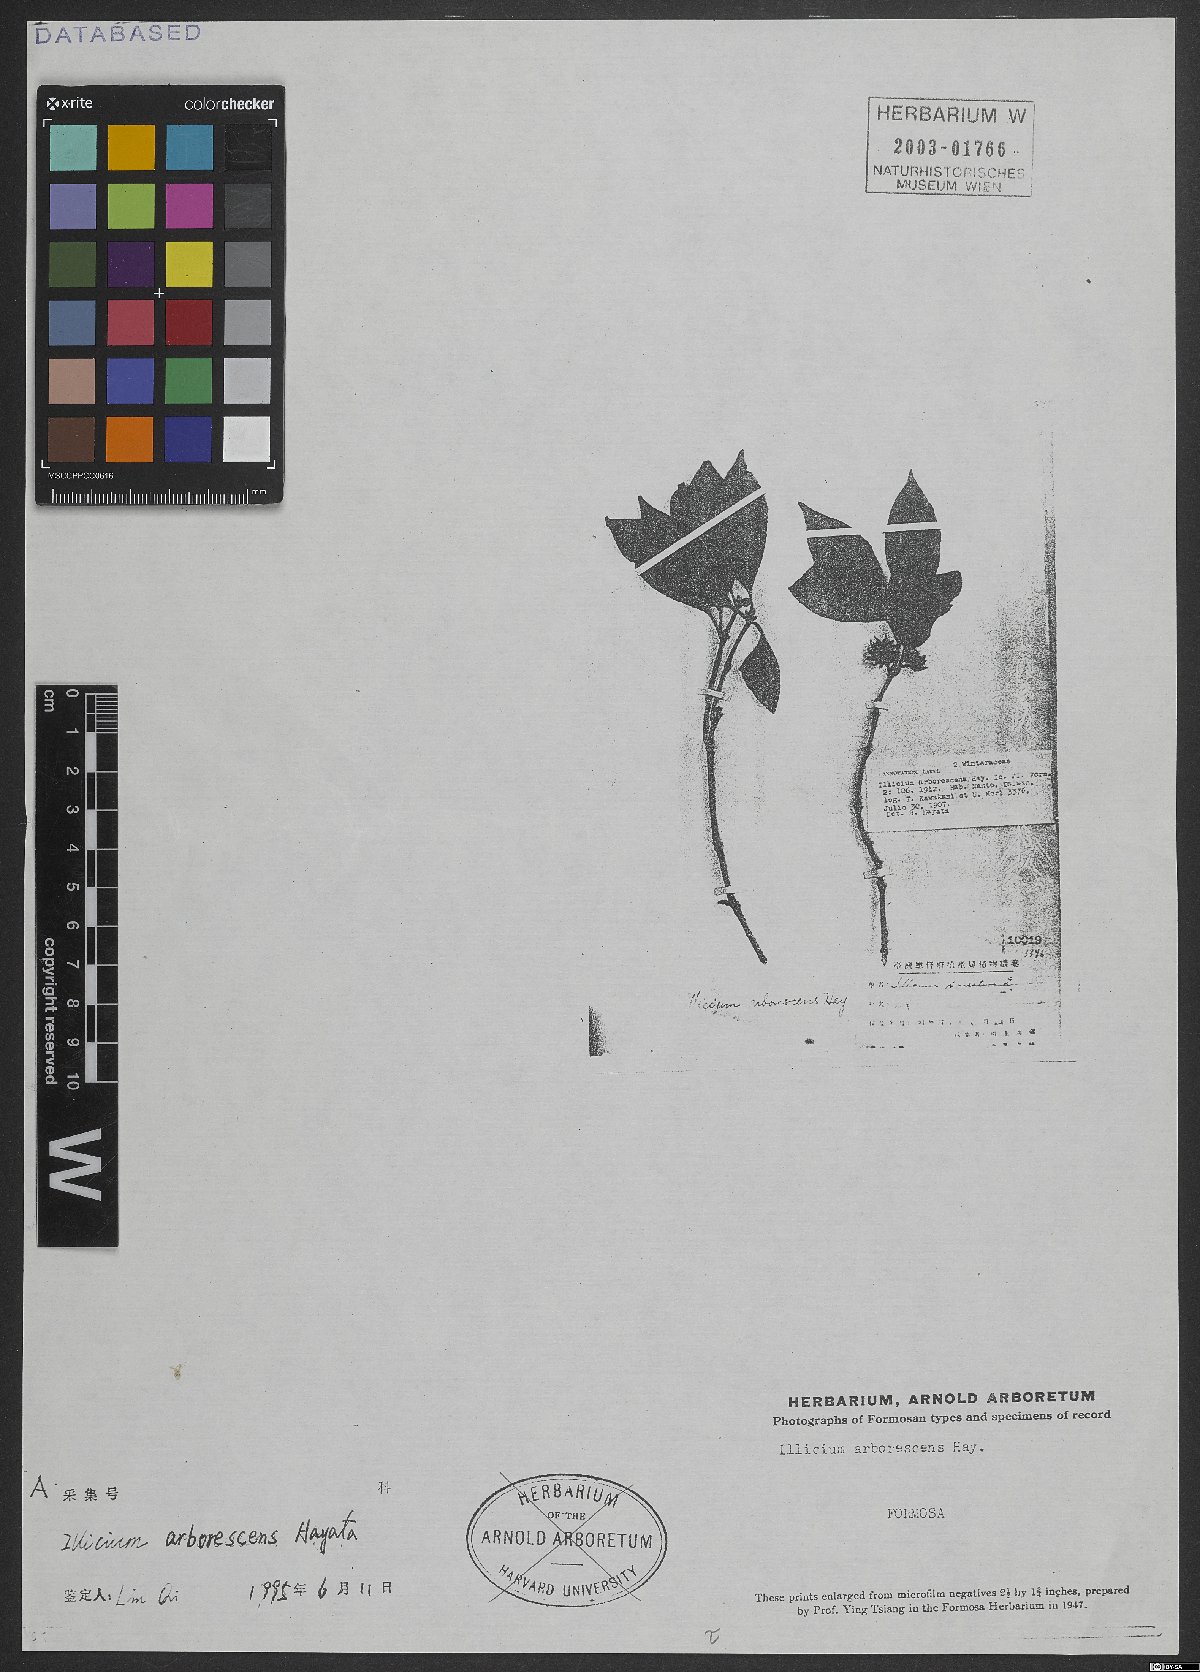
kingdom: Plantae
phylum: Tracheophyta
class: Magnoliopsida
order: Austrobaileyales
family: Schisandraceae
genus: Illicium
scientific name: Illicium arborescens
